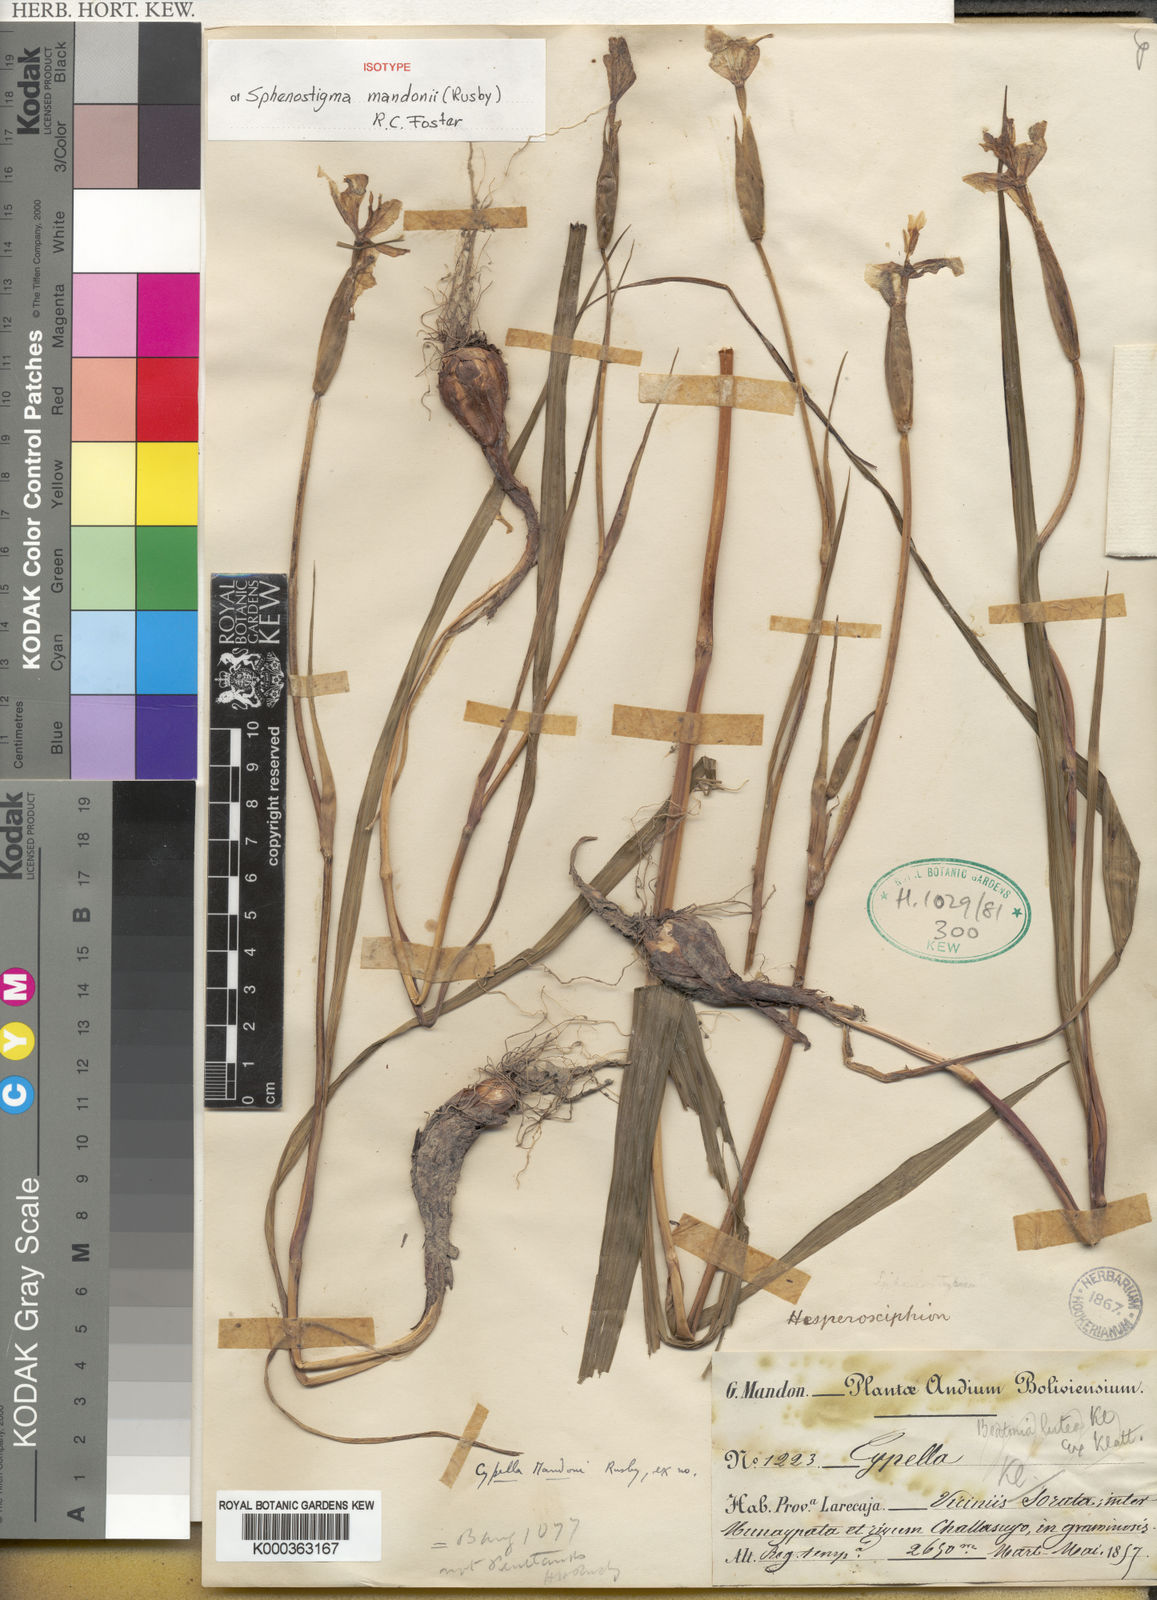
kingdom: Plantae
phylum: Tracheophyta
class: Liliopsida
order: Asparagales
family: Iridaceae
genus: Cypella
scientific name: Cypella mandonii
